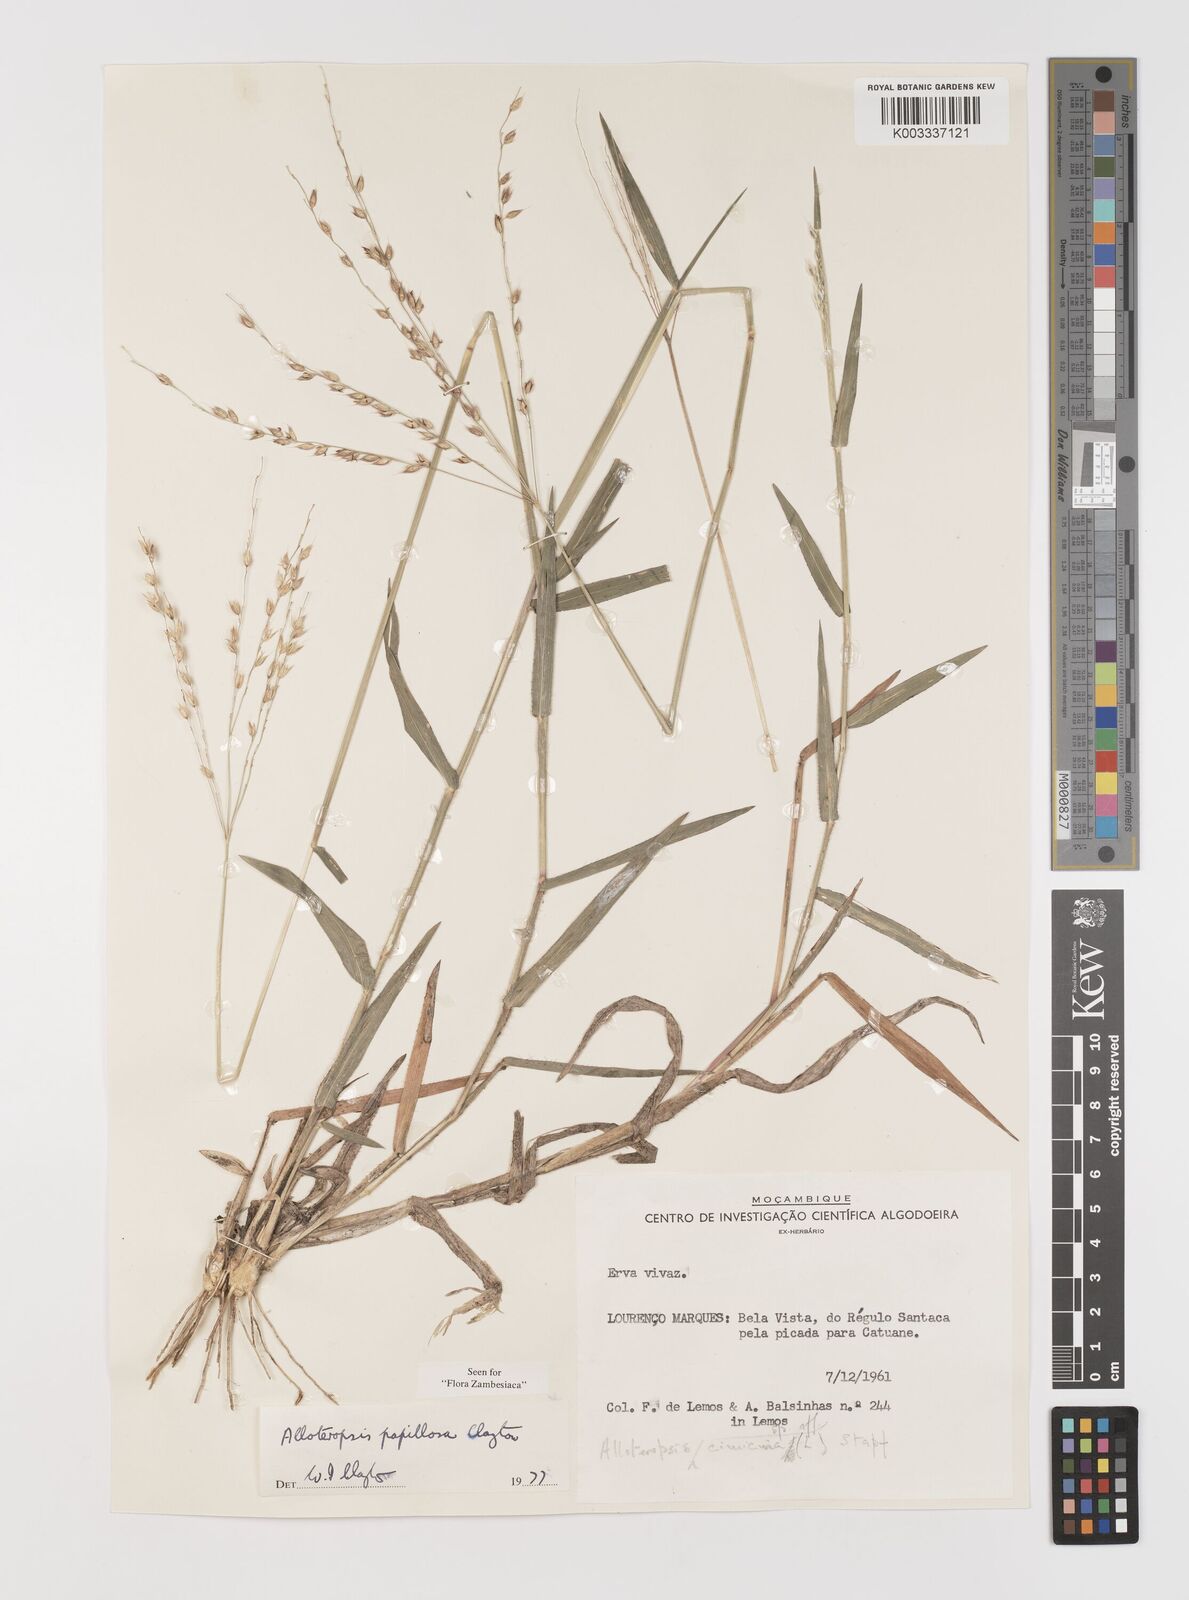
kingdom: Plantae
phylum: Tracheophyta
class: Liliopsida
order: Poales
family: Poaceae
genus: Alloteropsis
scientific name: Alloteropsis papillosa
